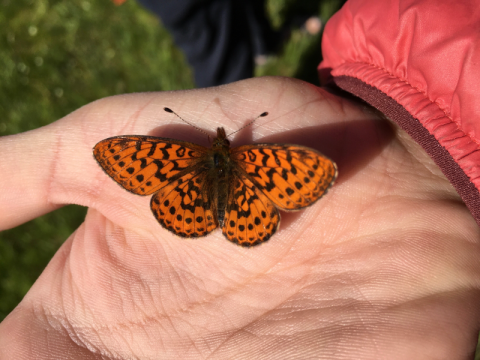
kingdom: Animalia
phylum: Arthropoda
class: Insecta
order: Lepidoptera
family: Nymphalidae
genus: Boloria
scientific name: Boloria epithore
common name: Pacific Fritillary
